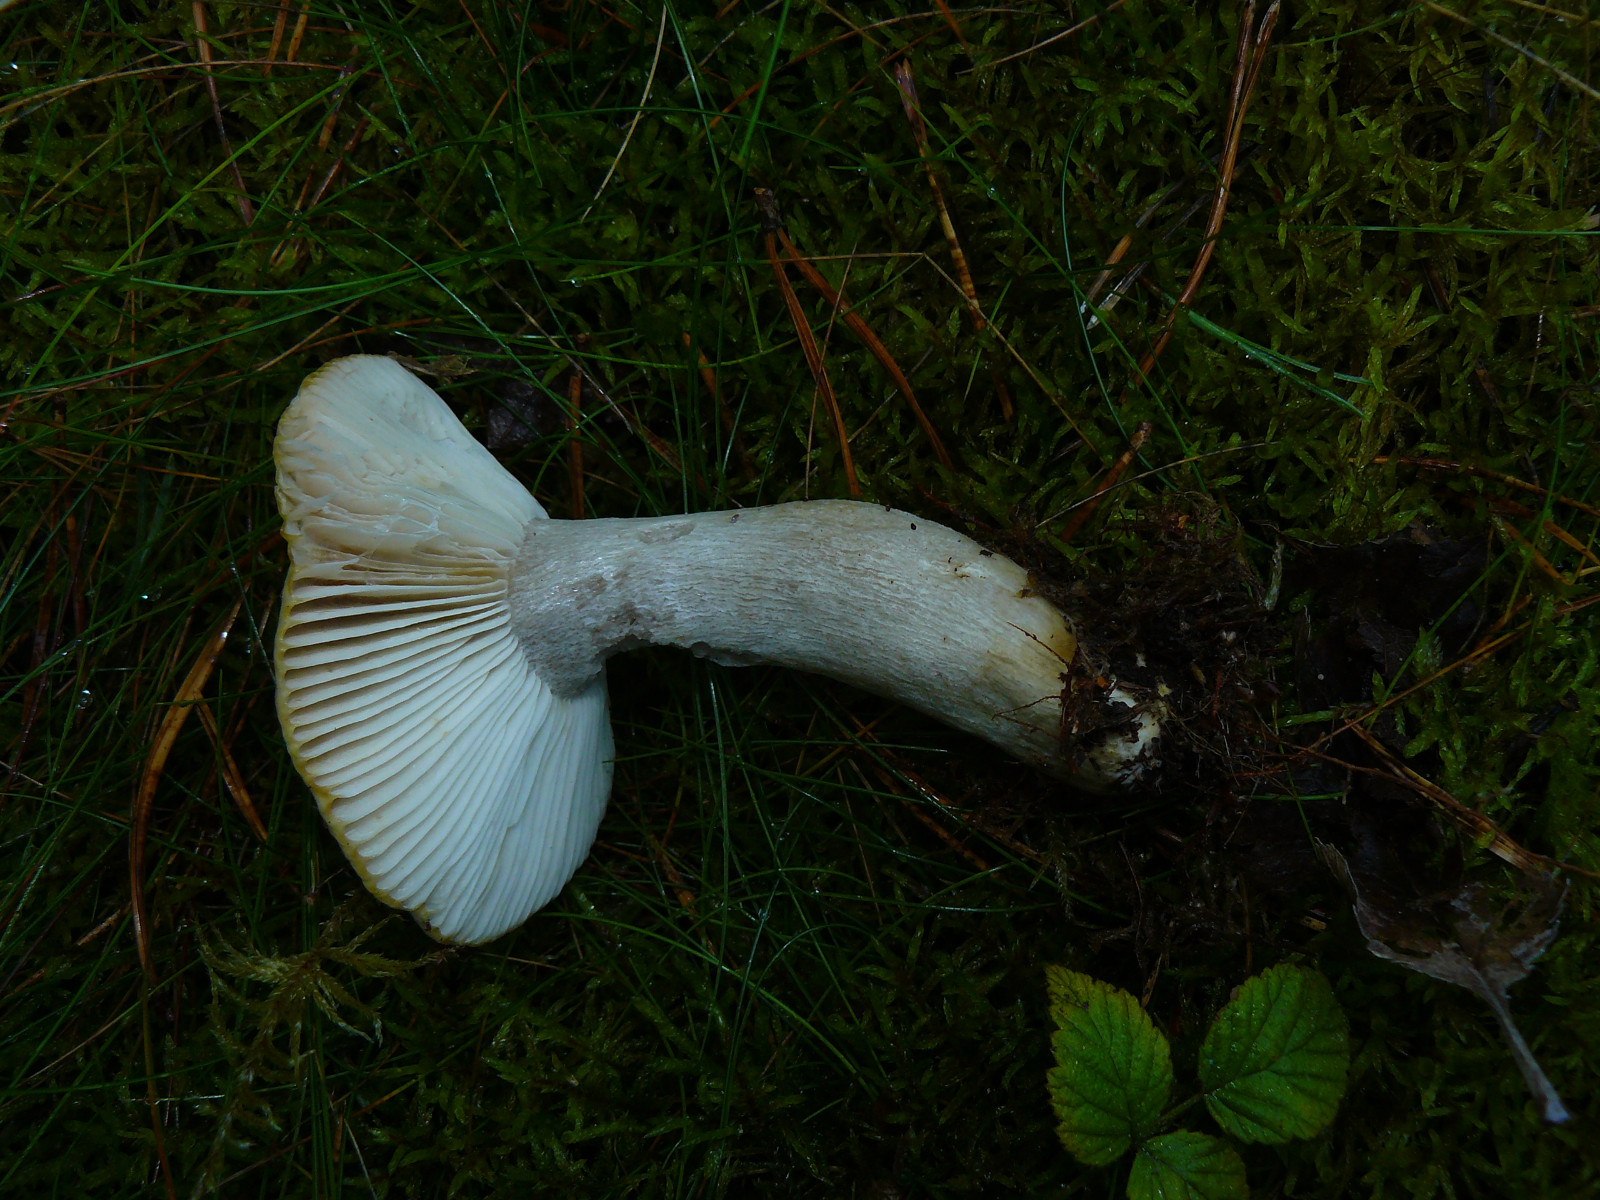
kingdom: Fungi
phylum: Basidiomycota
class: Agaricomycetes
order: Russulales
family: Russulaceae
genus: Russula
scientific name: Russula insignis
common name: gulfodet kam-skørhat
